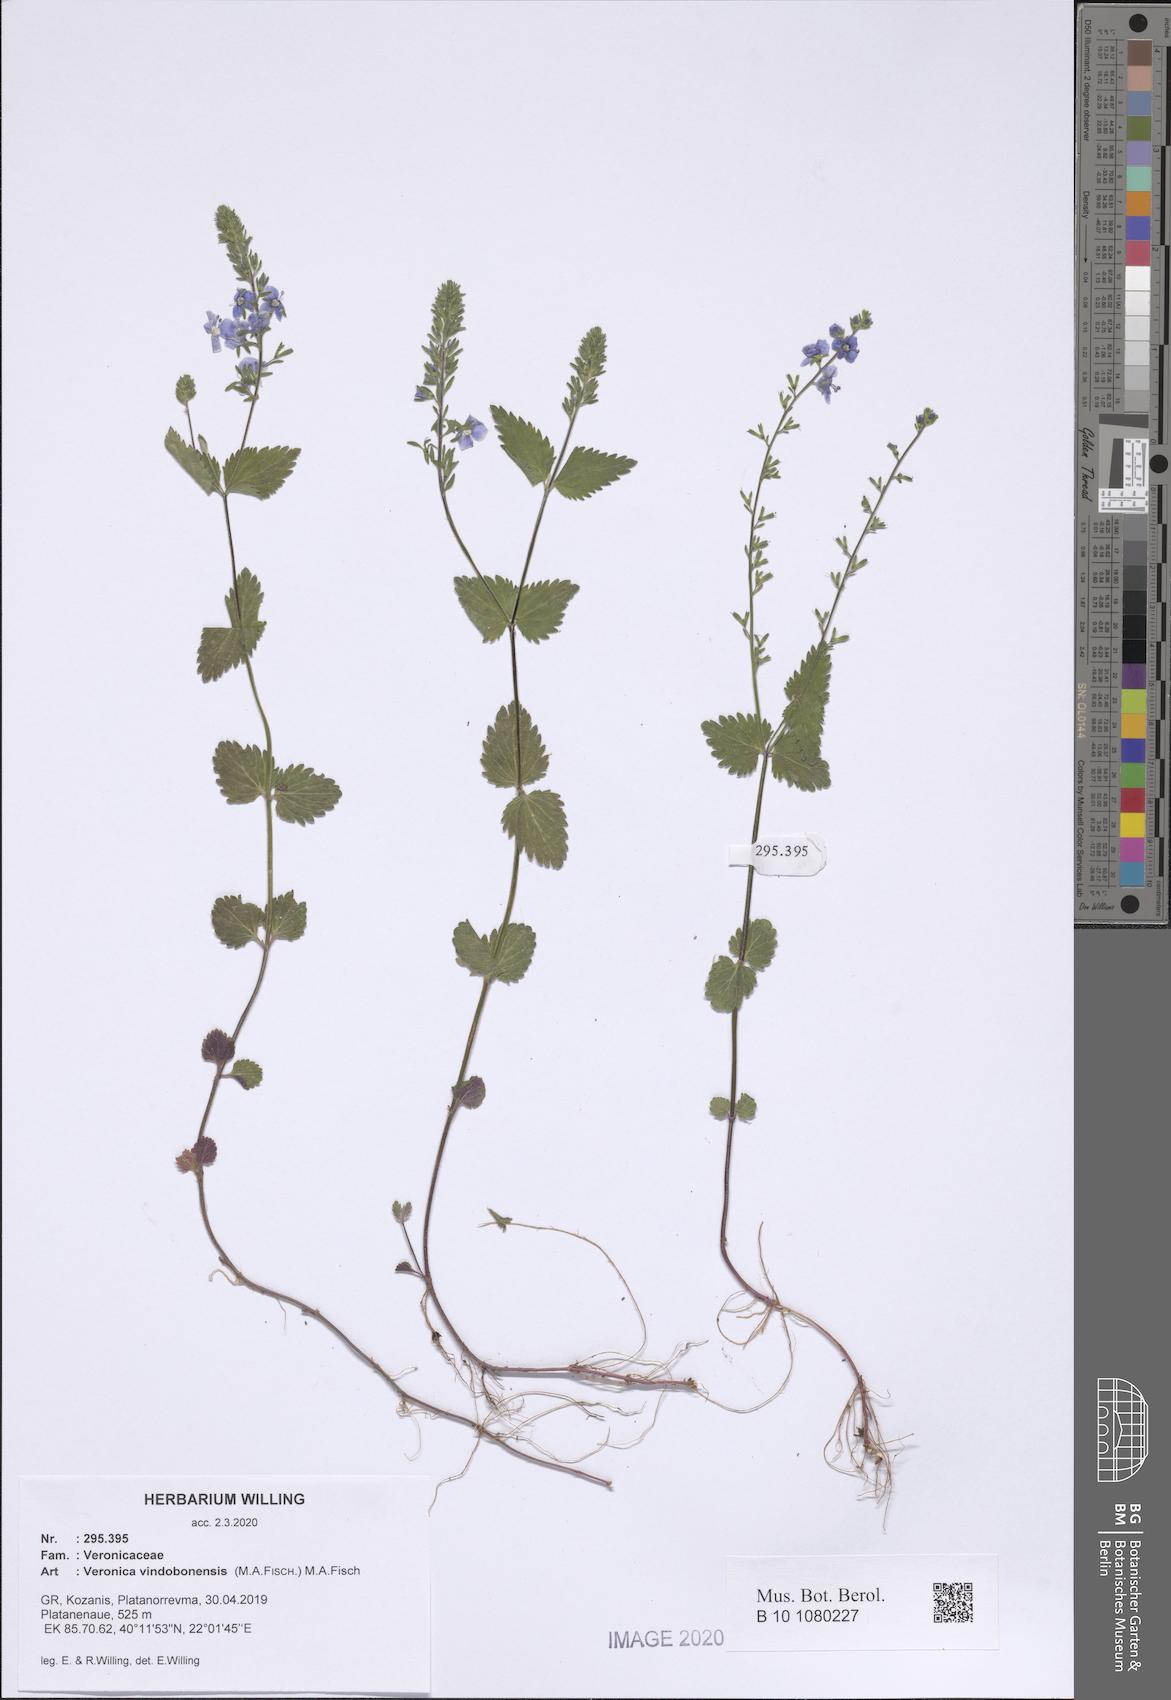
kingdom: Plantae
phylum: Tracheophyta
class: Magnoliopsida
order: Lamiales
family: Plantaginaceae
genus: Veronica
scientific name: Veronica vindobonensis
